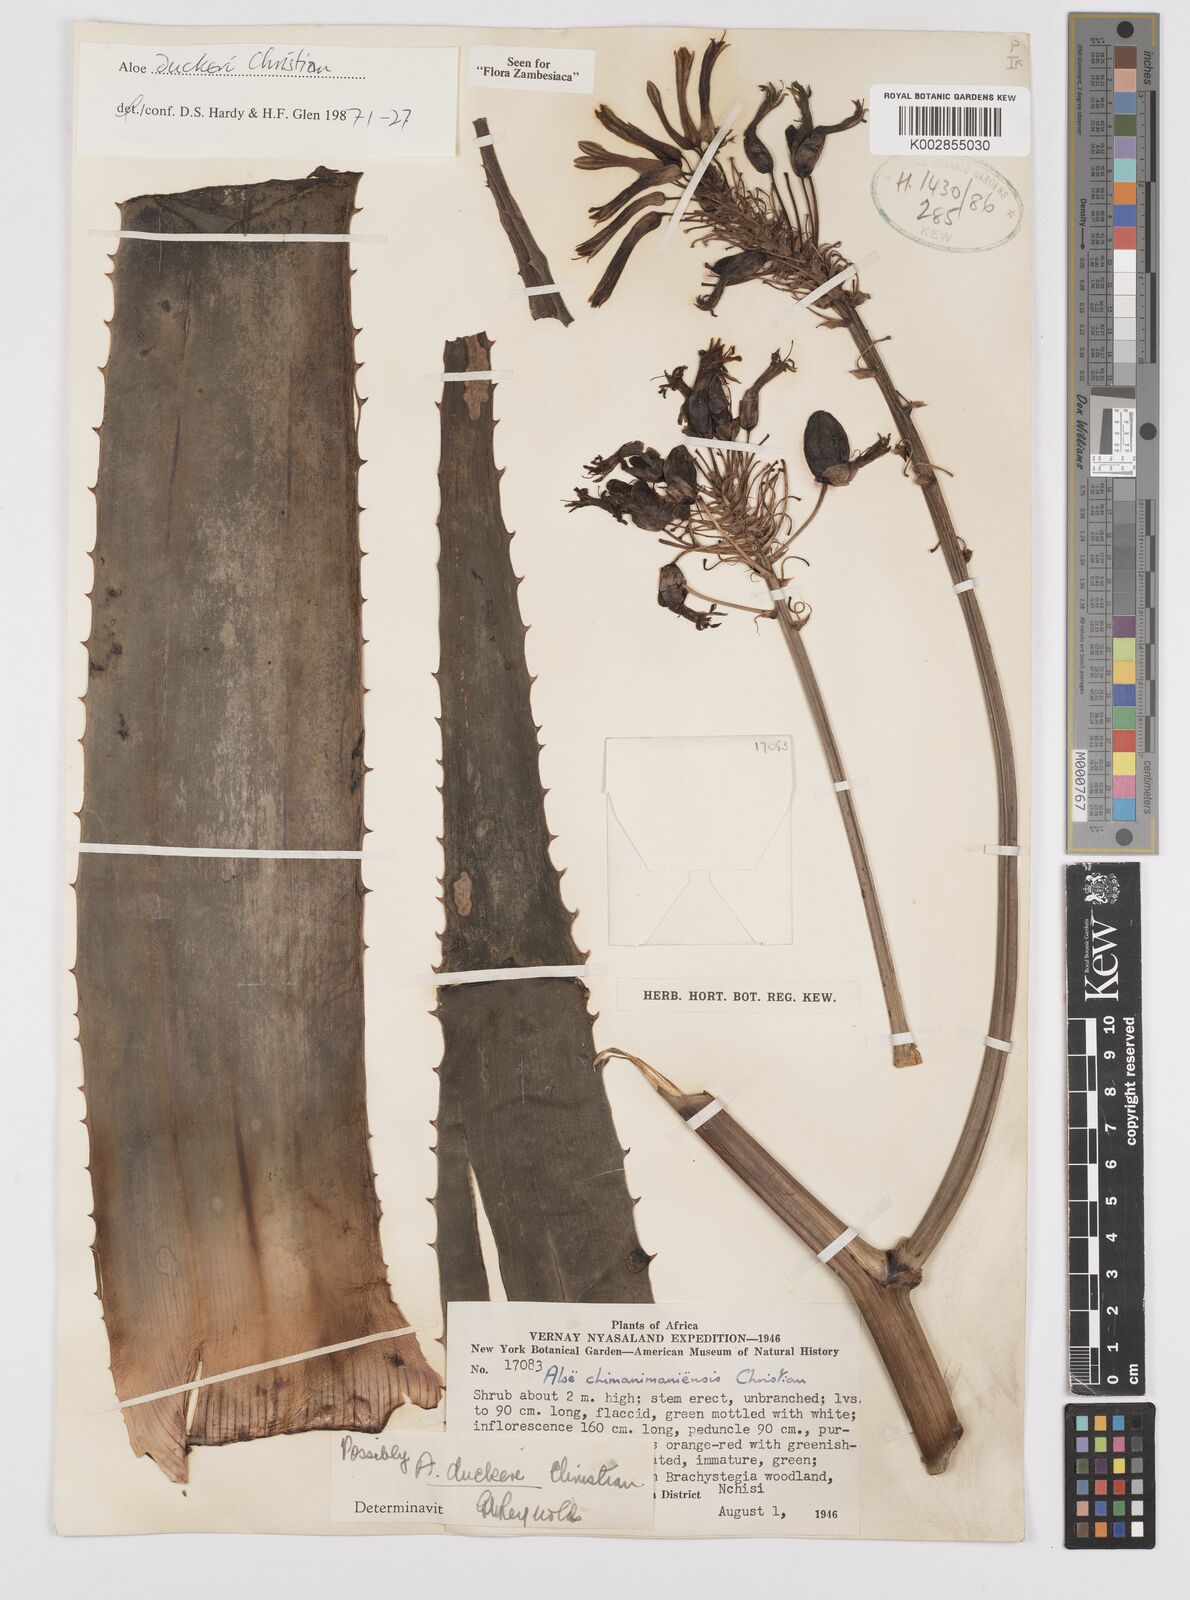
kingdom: Plantae
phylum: Tracheophyta
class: Liliopsida
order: Asparagales
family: Asphodelaceae
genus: Aloe
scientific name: Aloe swynnertonii
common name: Swynnerton's aloe
